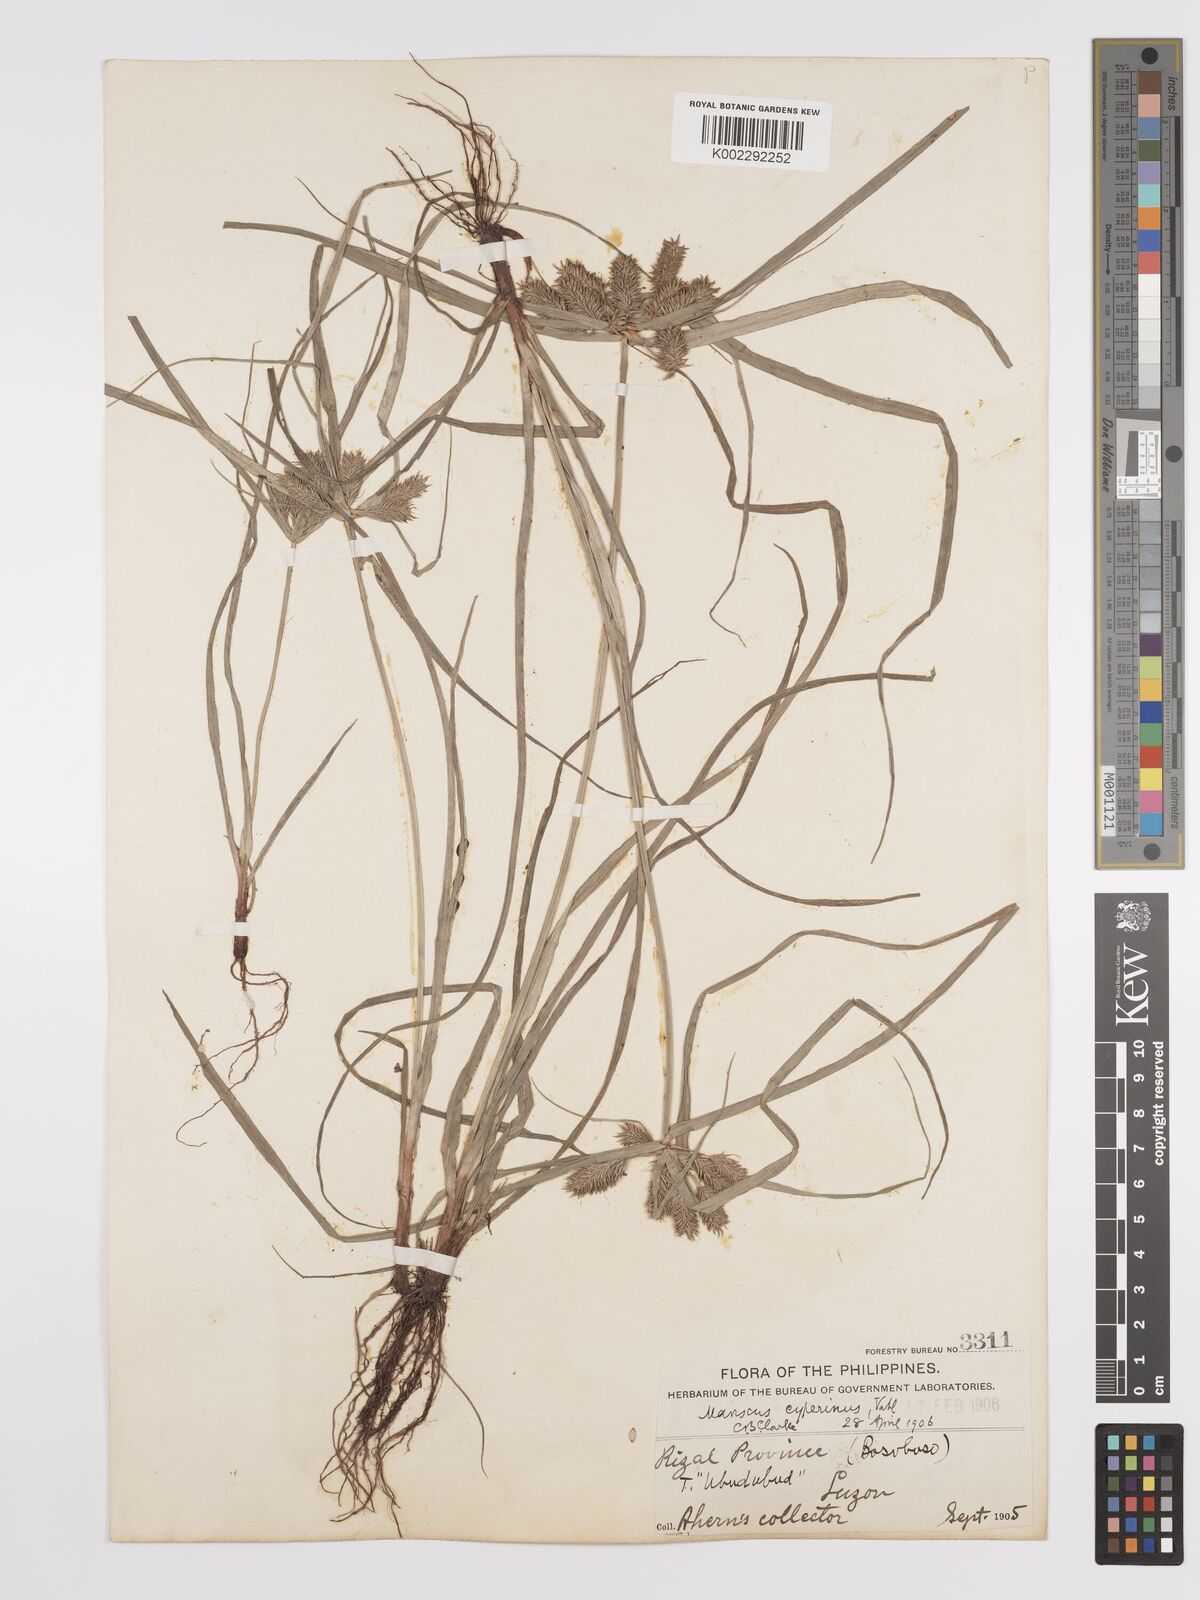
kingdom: Plantae
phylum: Tracheophyta
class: Liliopsida
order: Poales
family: Cyperaceae
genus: Cyperus
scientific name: Cyperus cyperinus
